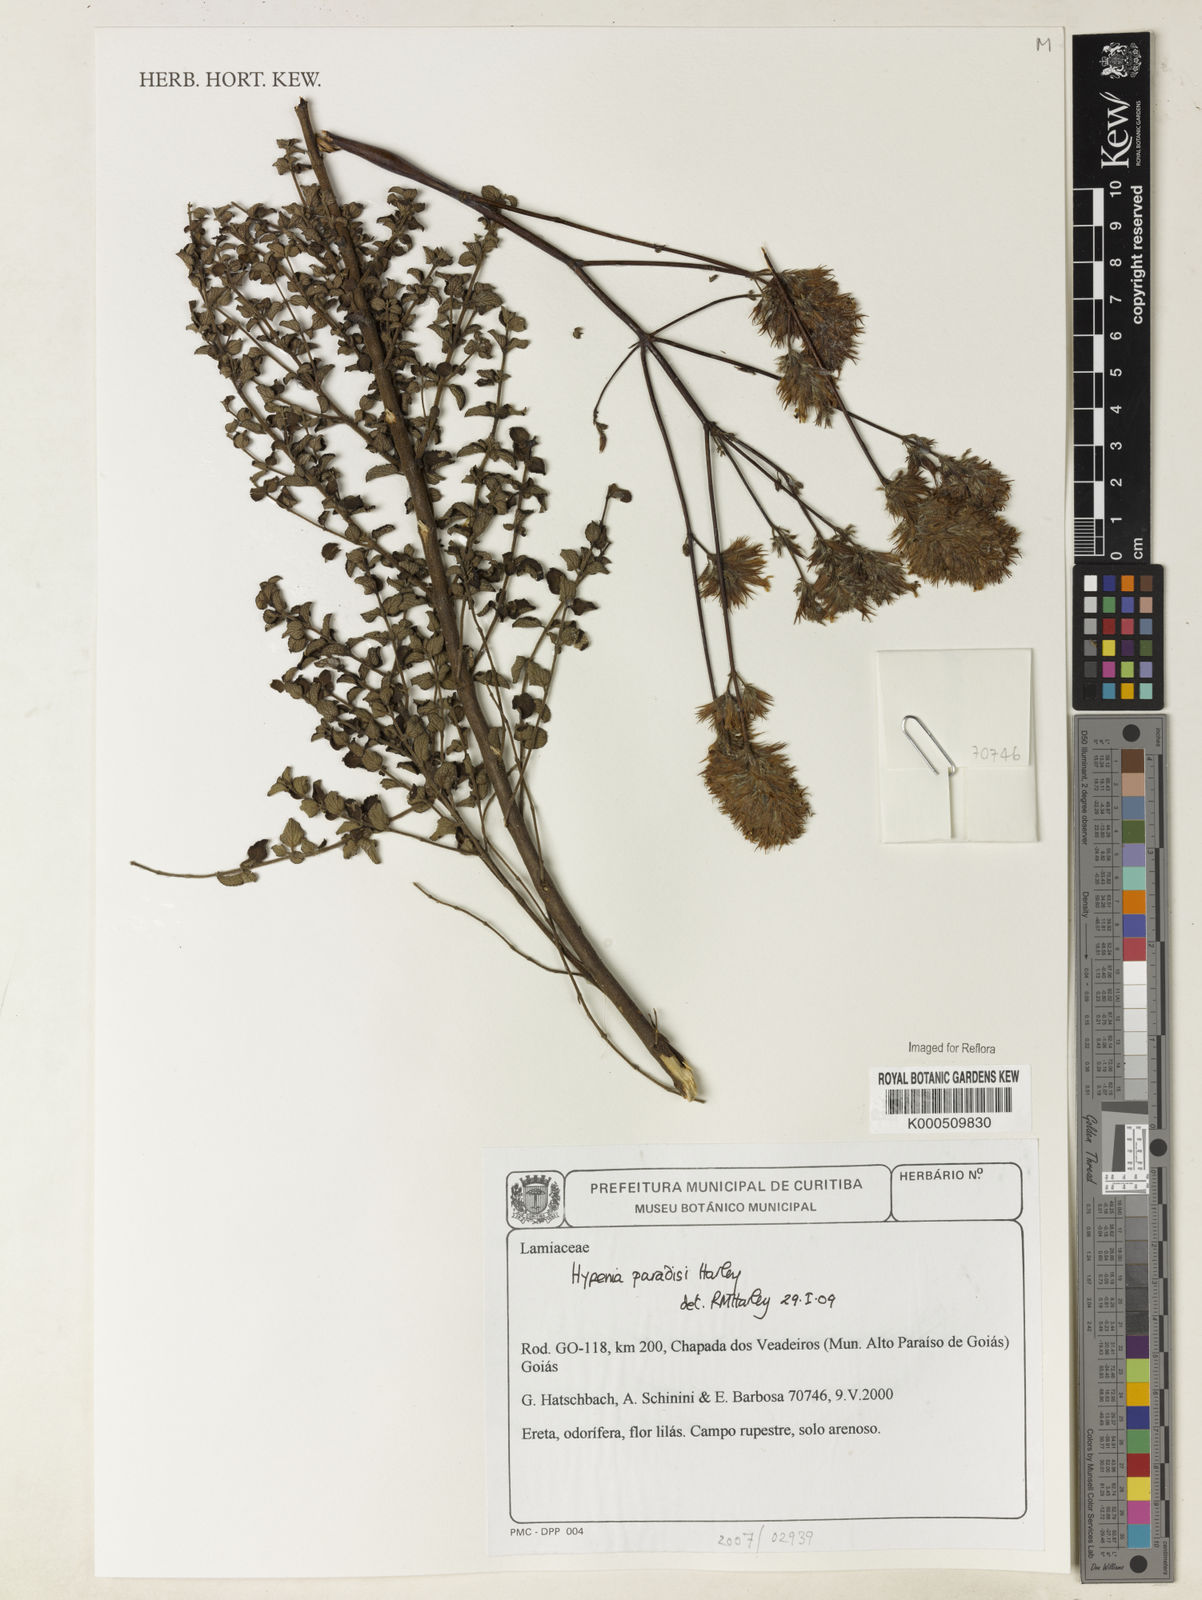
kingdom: Plantae
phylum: Tracheophyta
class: Magnoliopsida
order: Lamiales
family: Lamiaceae
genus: Hypenia
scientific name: Hypenia paradisi
